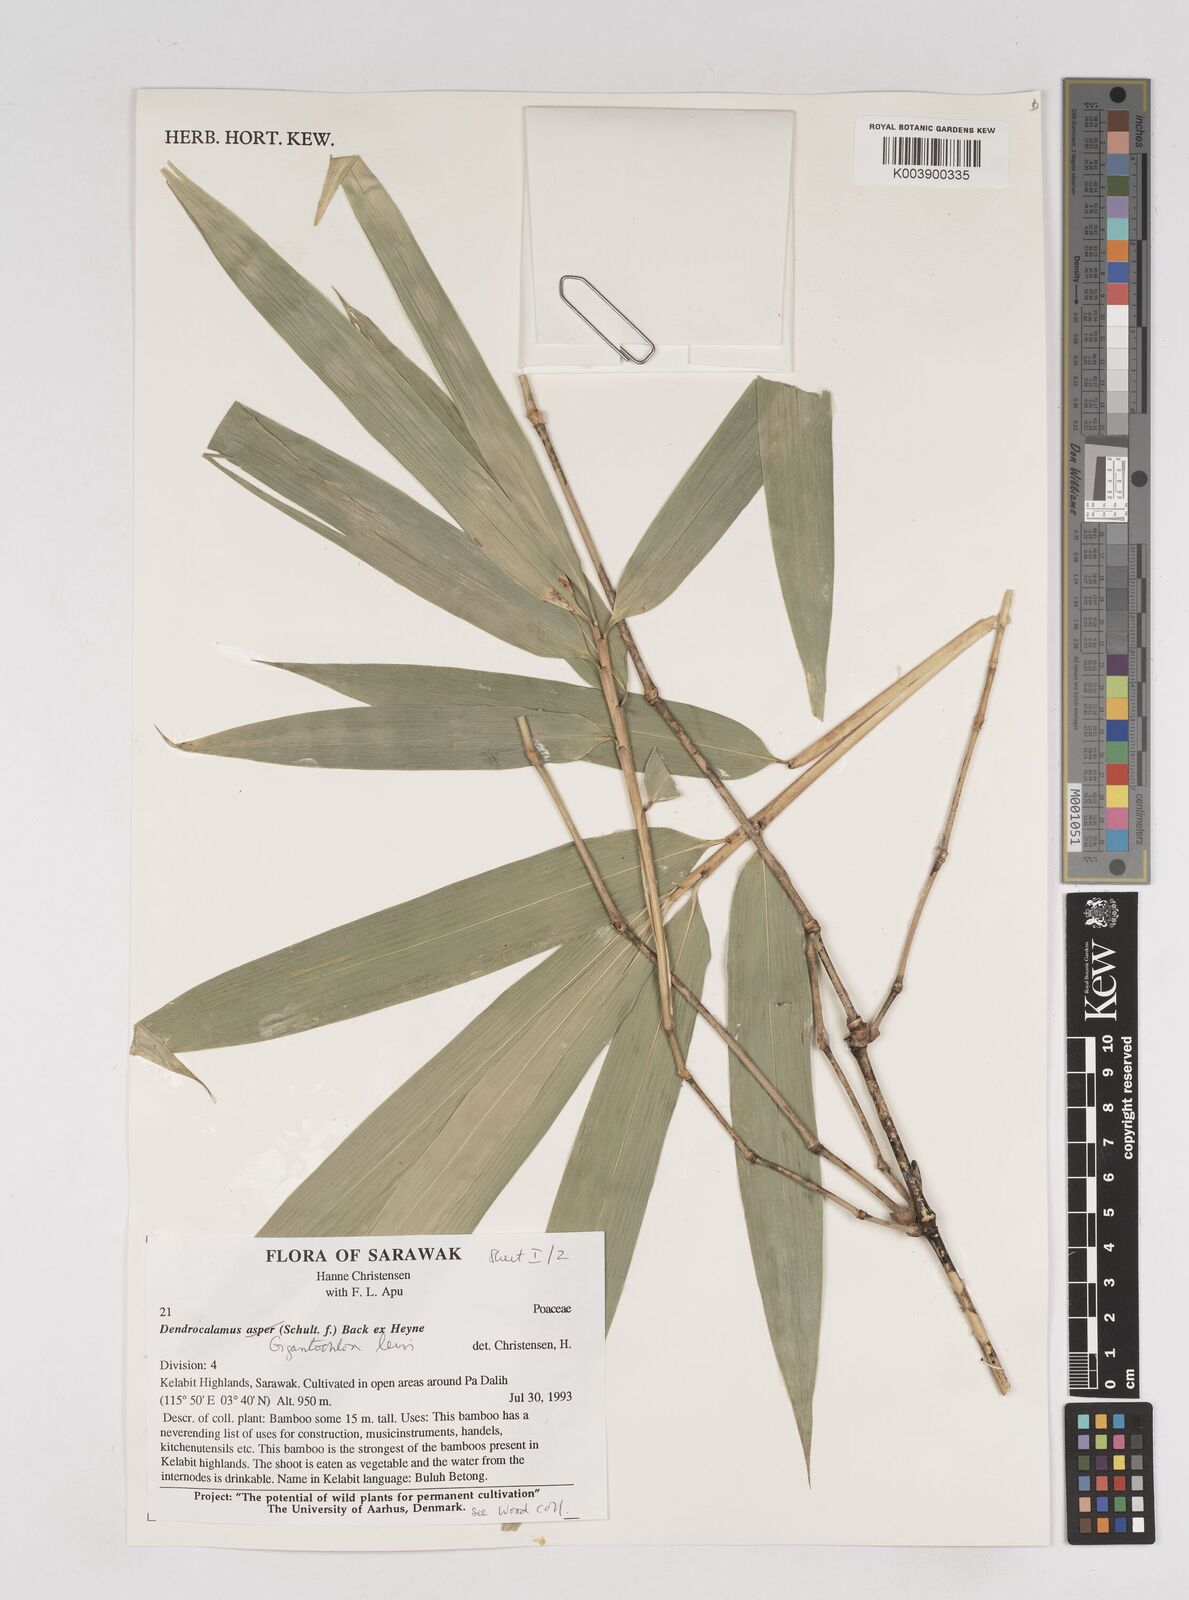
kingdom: Plantae
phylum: Tracheophyta
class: Liliopsida
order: Poales
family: Poaceae
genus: Gigantochloa
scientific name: Gigantochloa levis
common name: Smooth-shoot gigantochloa
